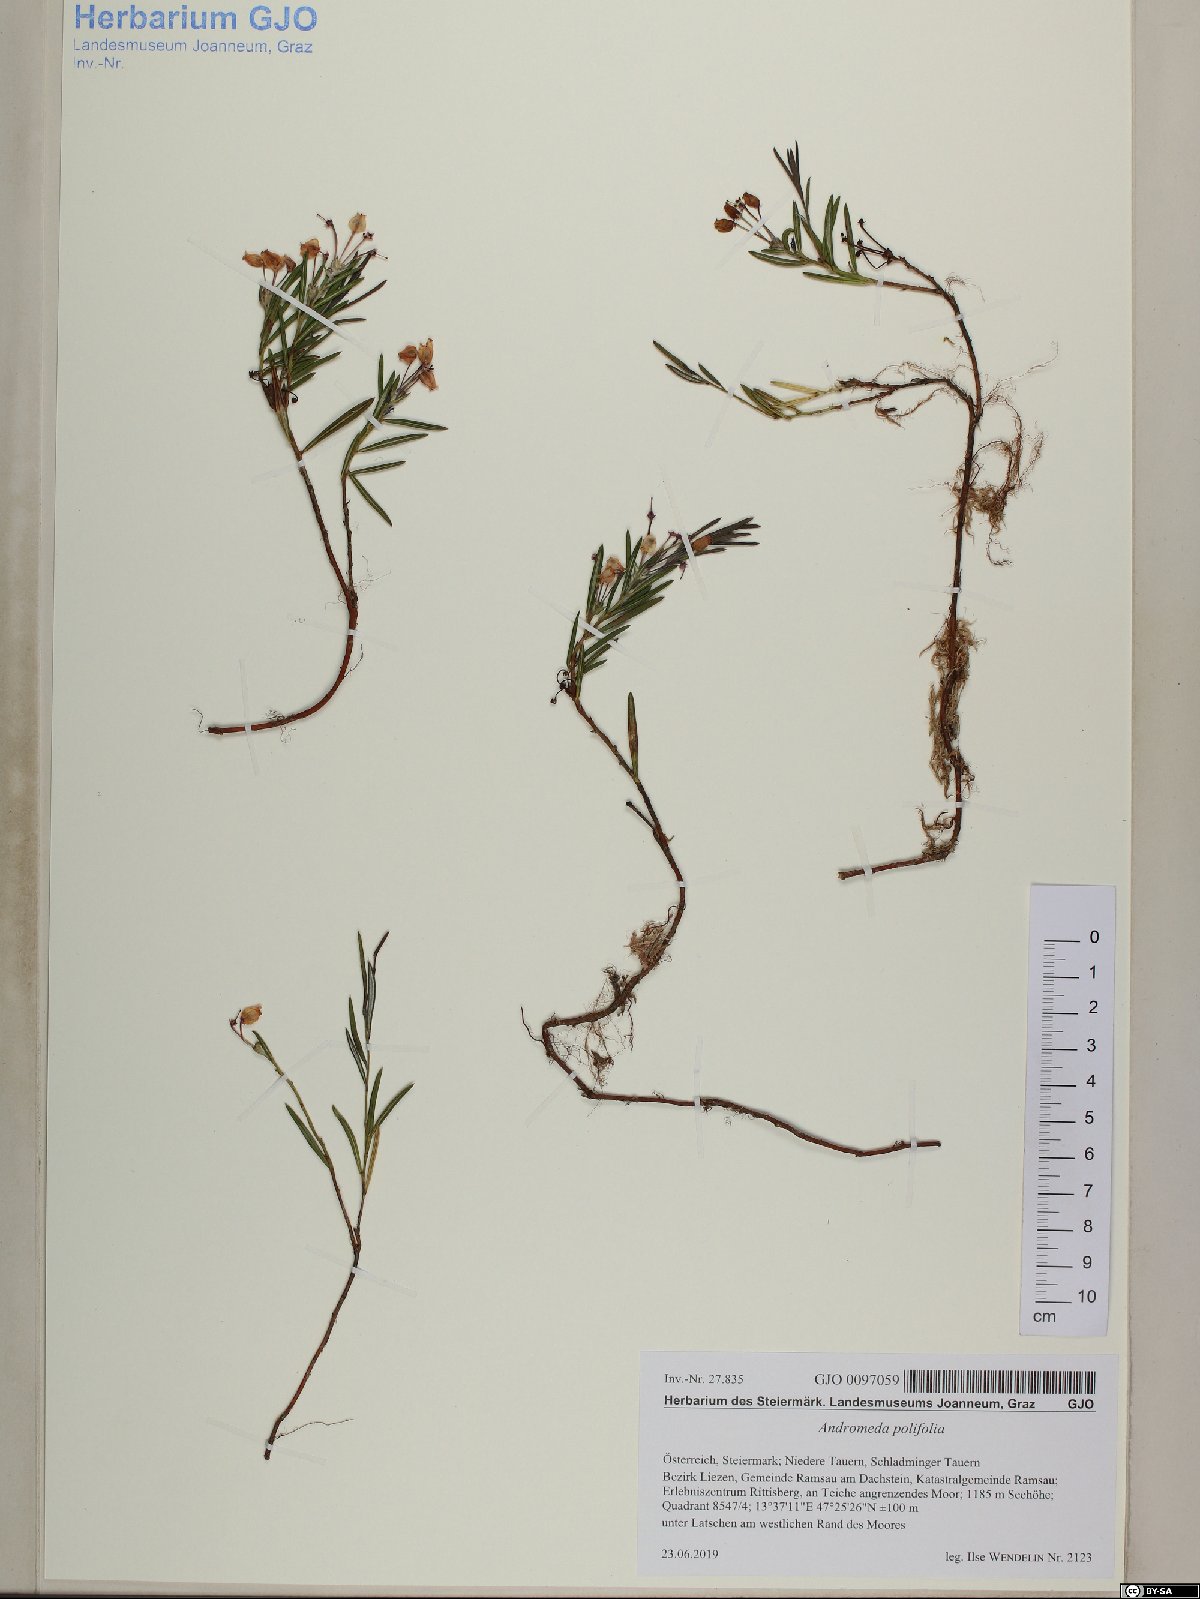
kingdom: Plantae
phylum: Tracheophyta
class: Magnoliopsida
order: Ericales
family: Ericaceae
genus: Andromeda
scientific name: Andromeda polifolia
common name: Bog-rosemary
